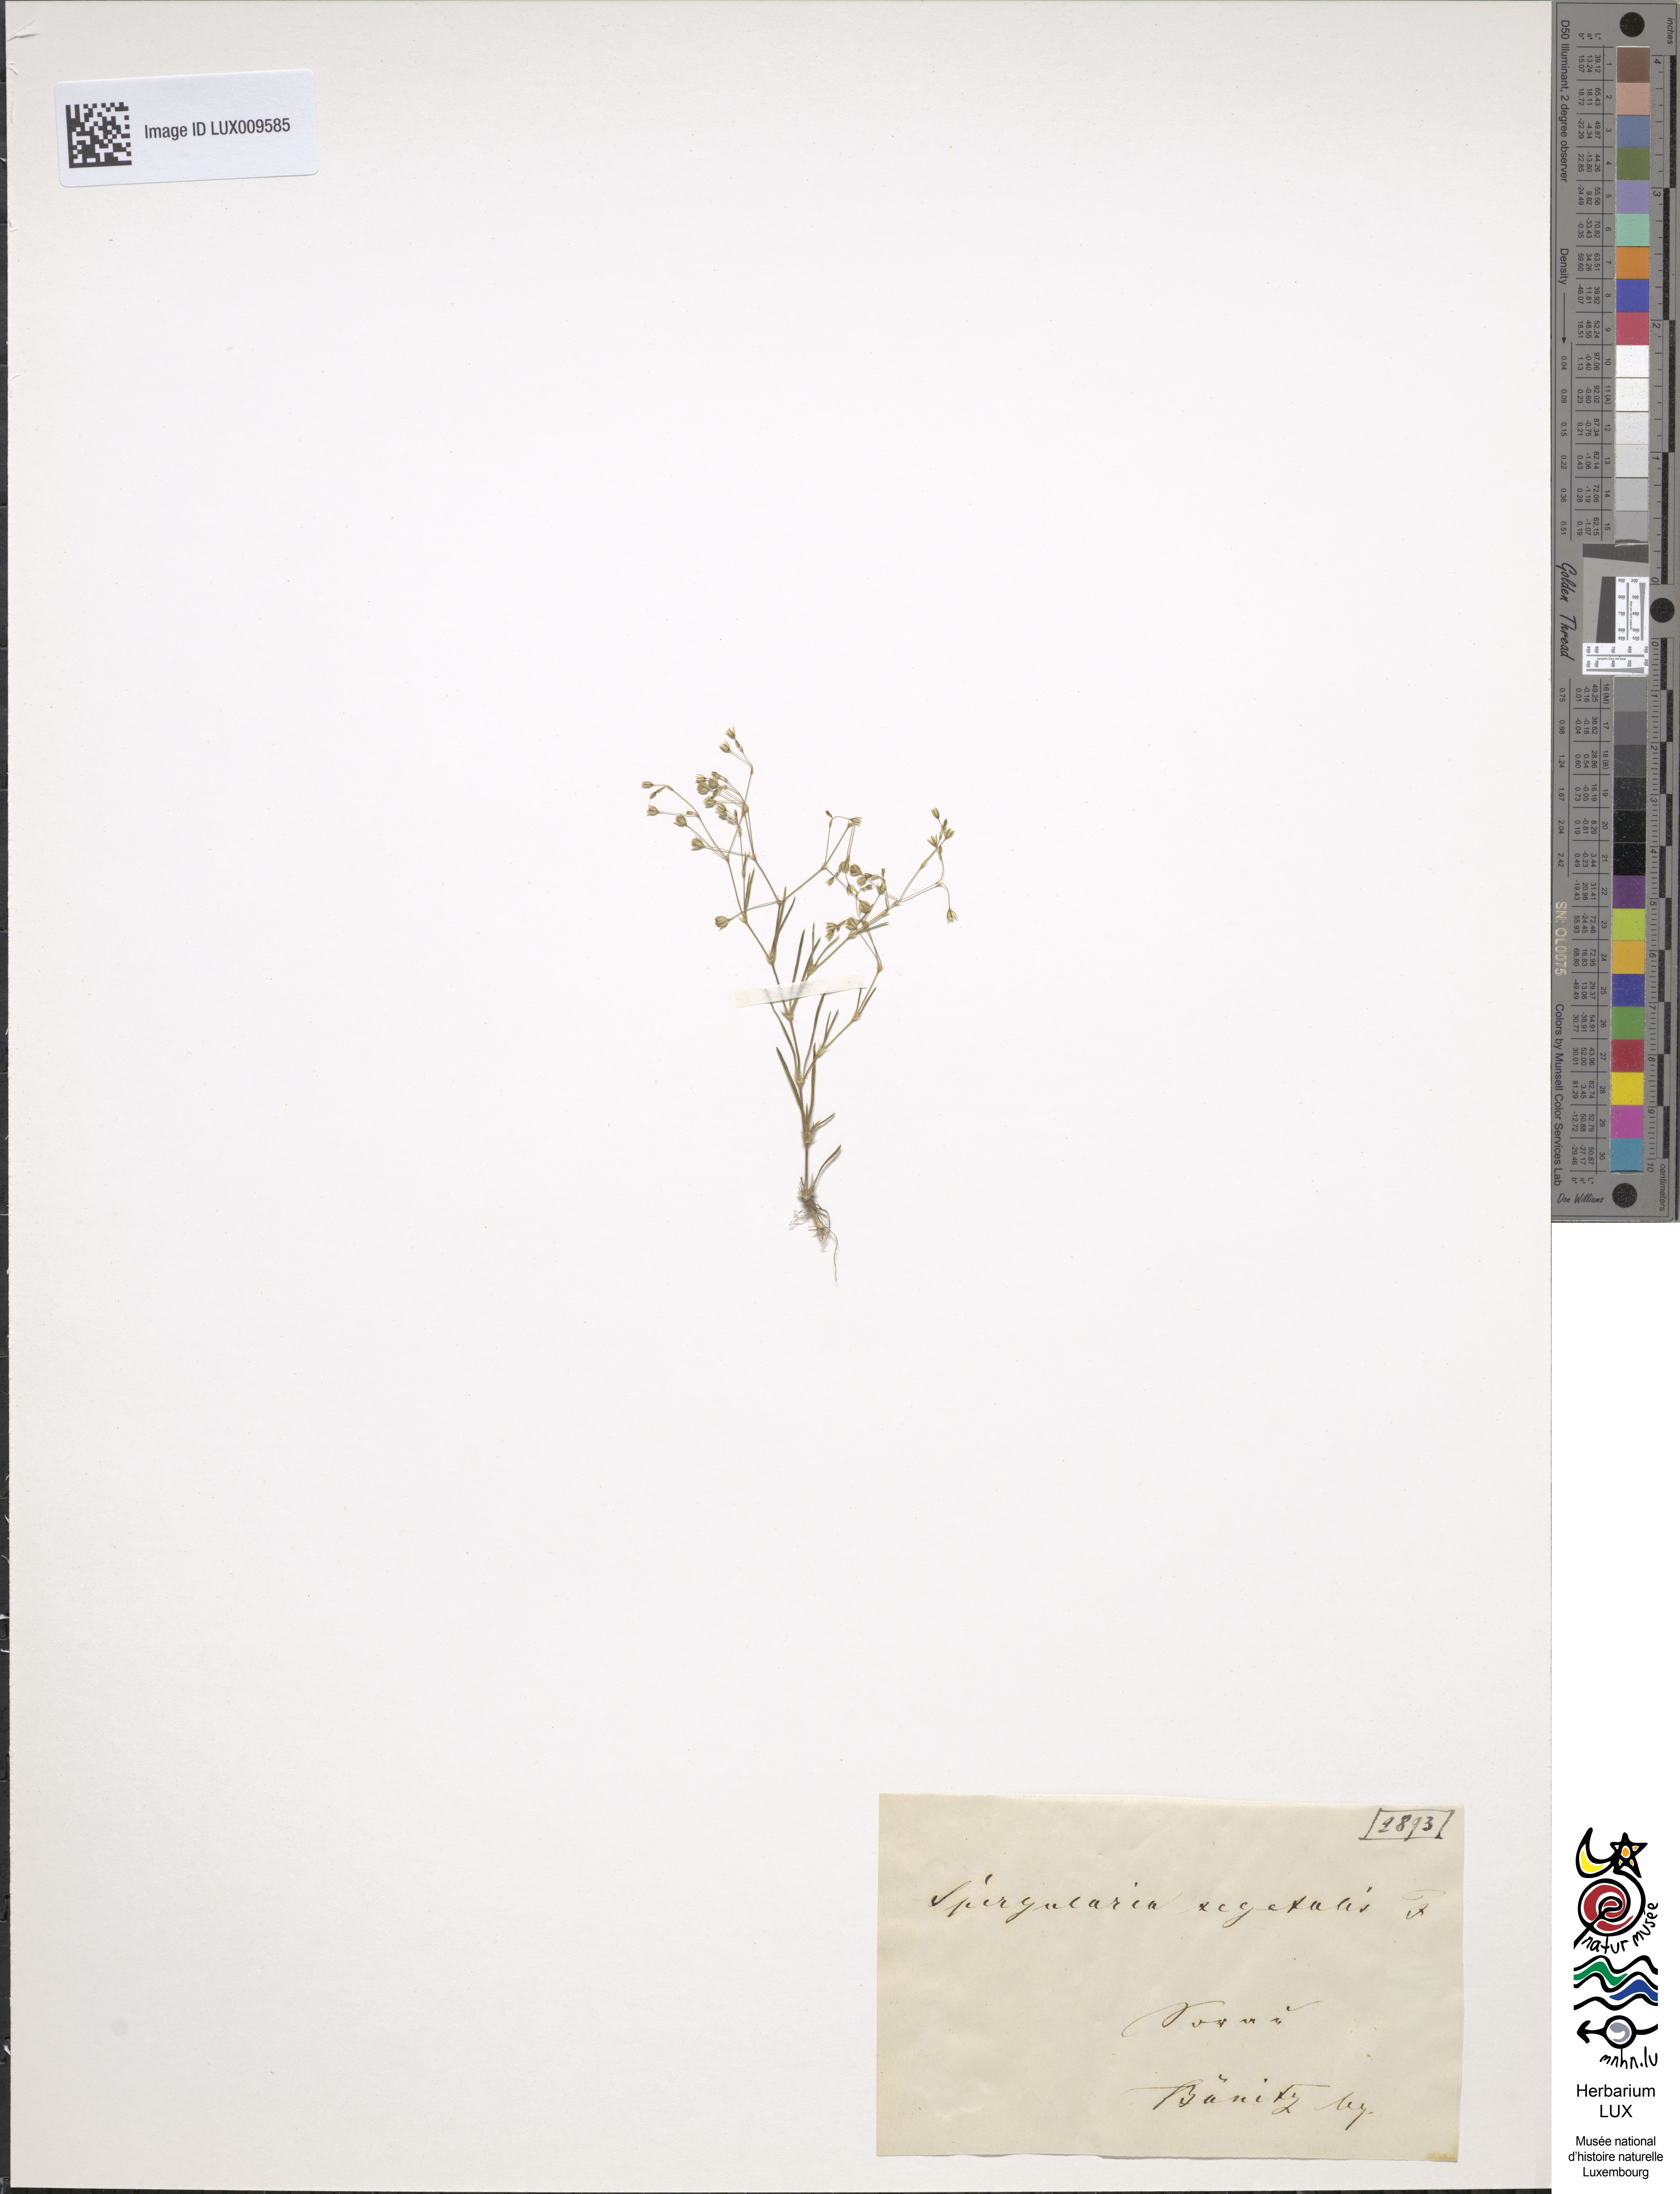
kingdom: Plantae
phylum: Tracheophyta
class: Magnoliopsida
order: Caryophyllales
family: Caryophyllaceae
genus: Spergularia
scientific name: Spergularia segetalis
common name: Corn sand spurrey
